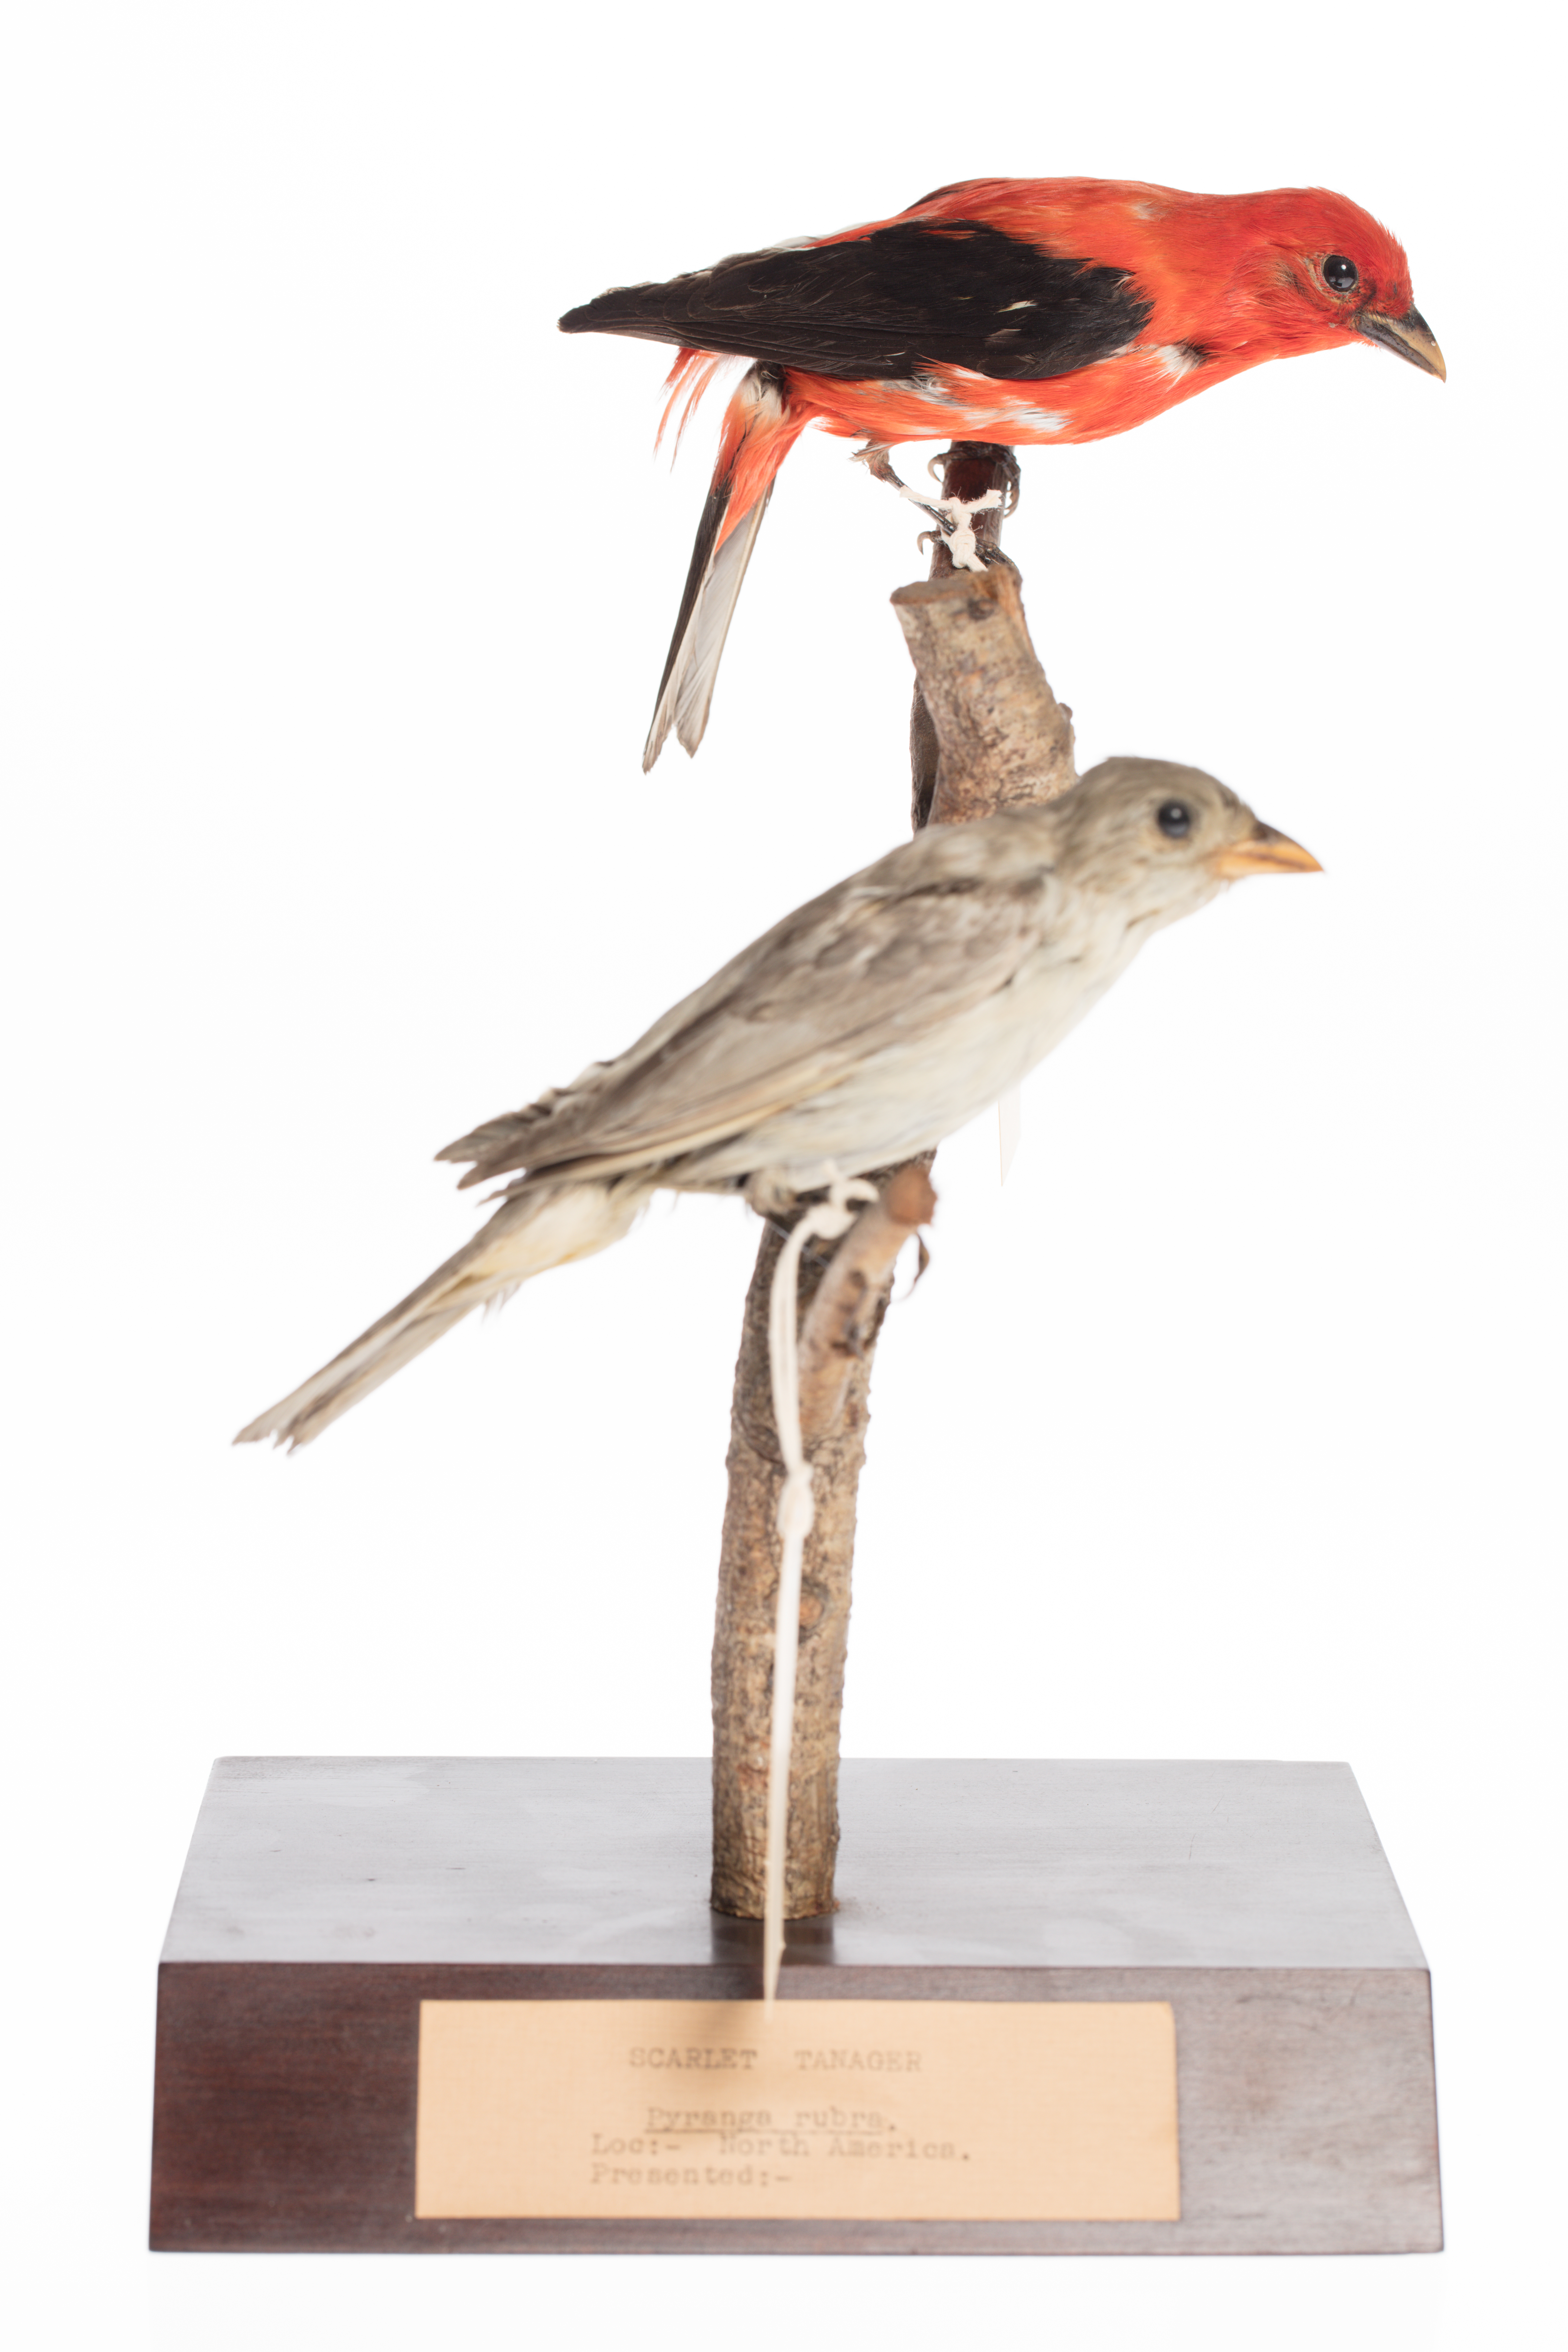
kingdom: Animalia
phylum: Chordata
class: Aves
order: Passeriformes
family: Cardinalidae
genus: Piranga
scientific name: Piranga rubra
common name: Summer tanager
